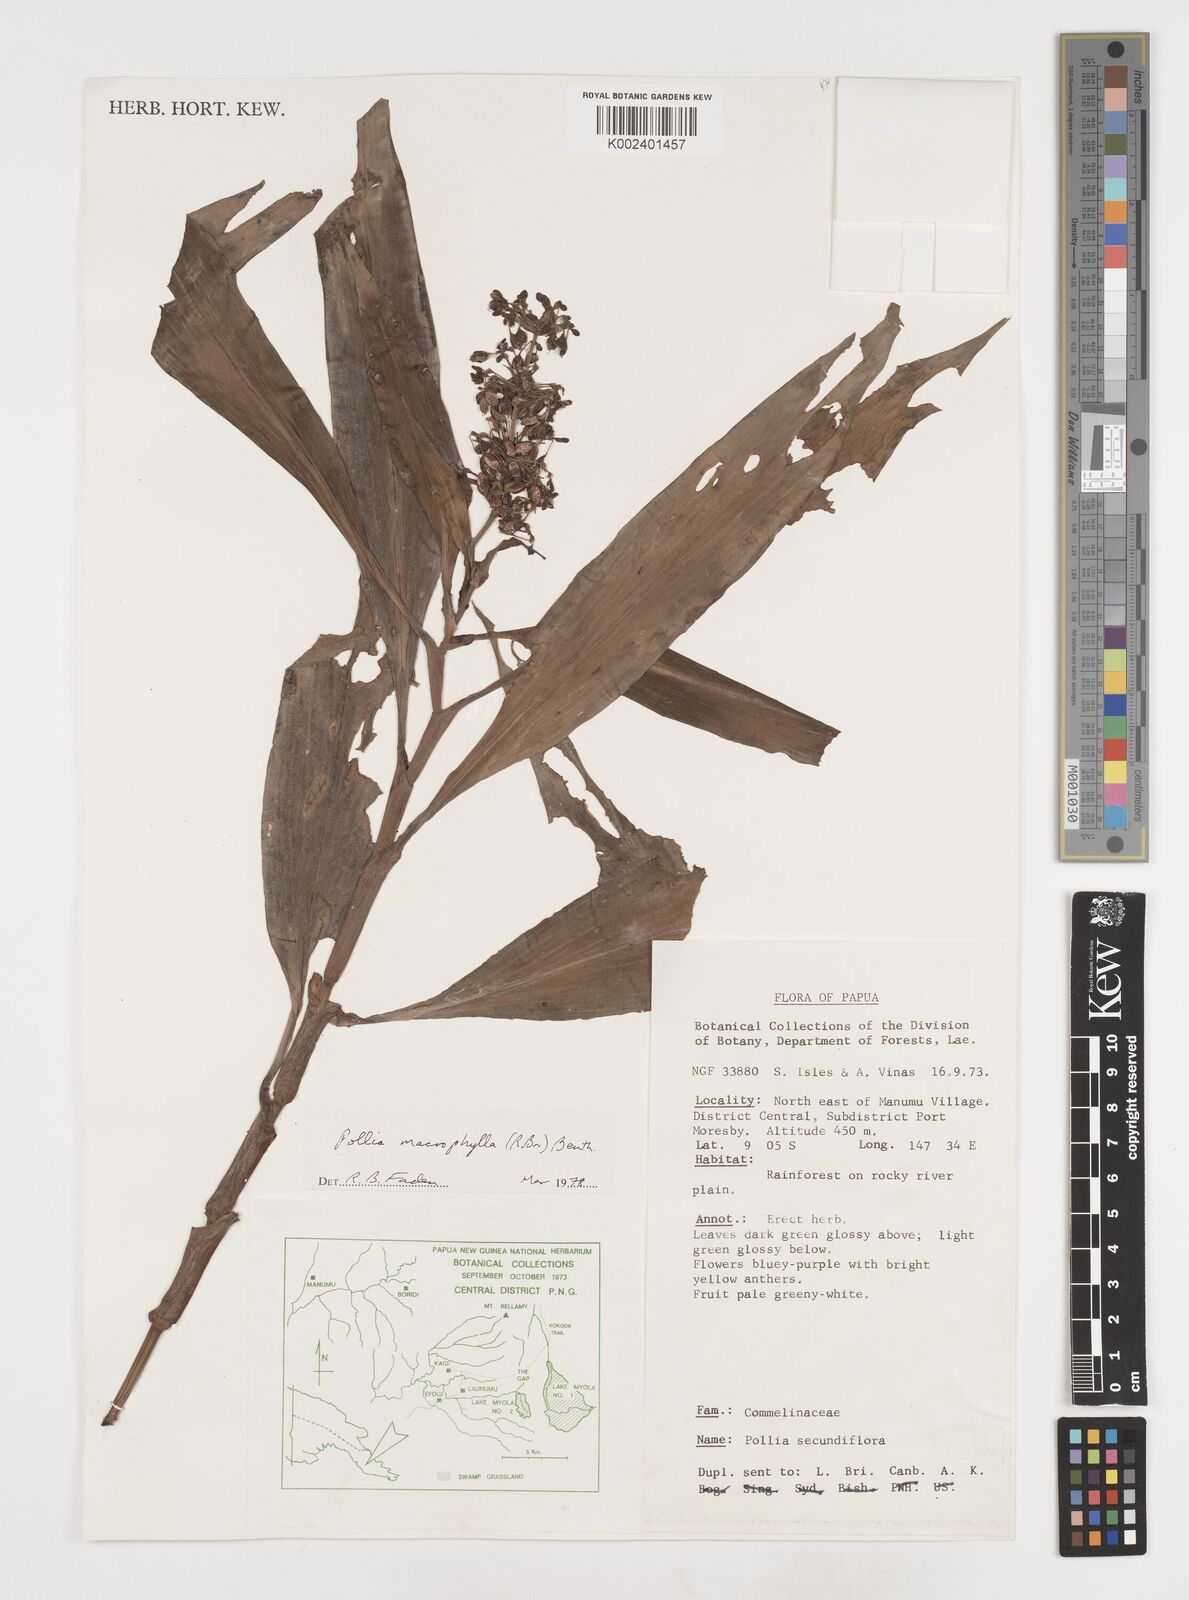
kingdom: Plantae
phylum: Tracheophyta
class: Liliopsida
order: Commelinales
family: Commelinaceae
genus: Pollia
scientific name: Pollia macrophylla
